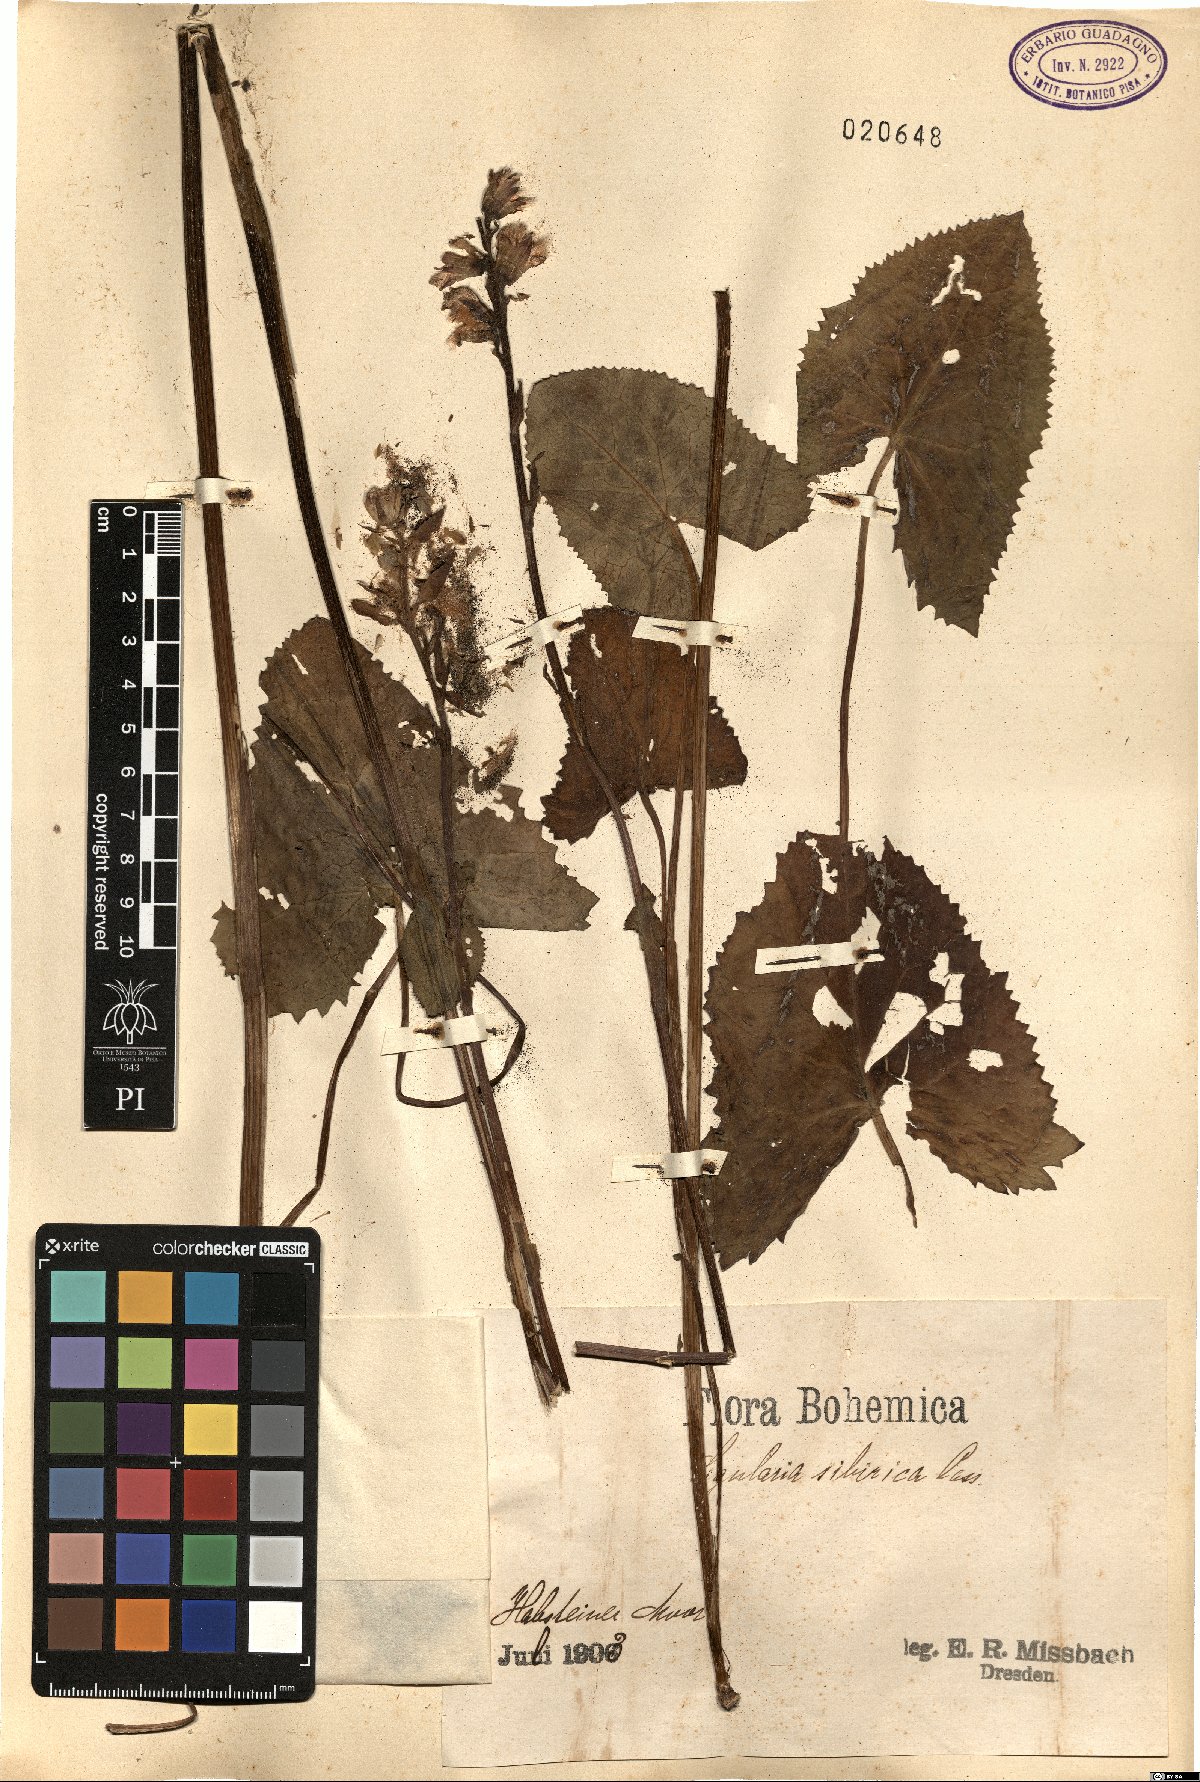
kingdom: Plantae
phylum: Tracheophyta
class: Magnoliopsida
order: Asterales
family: Asteraceae
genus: Ligularia
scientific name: Ligularia sibirica
